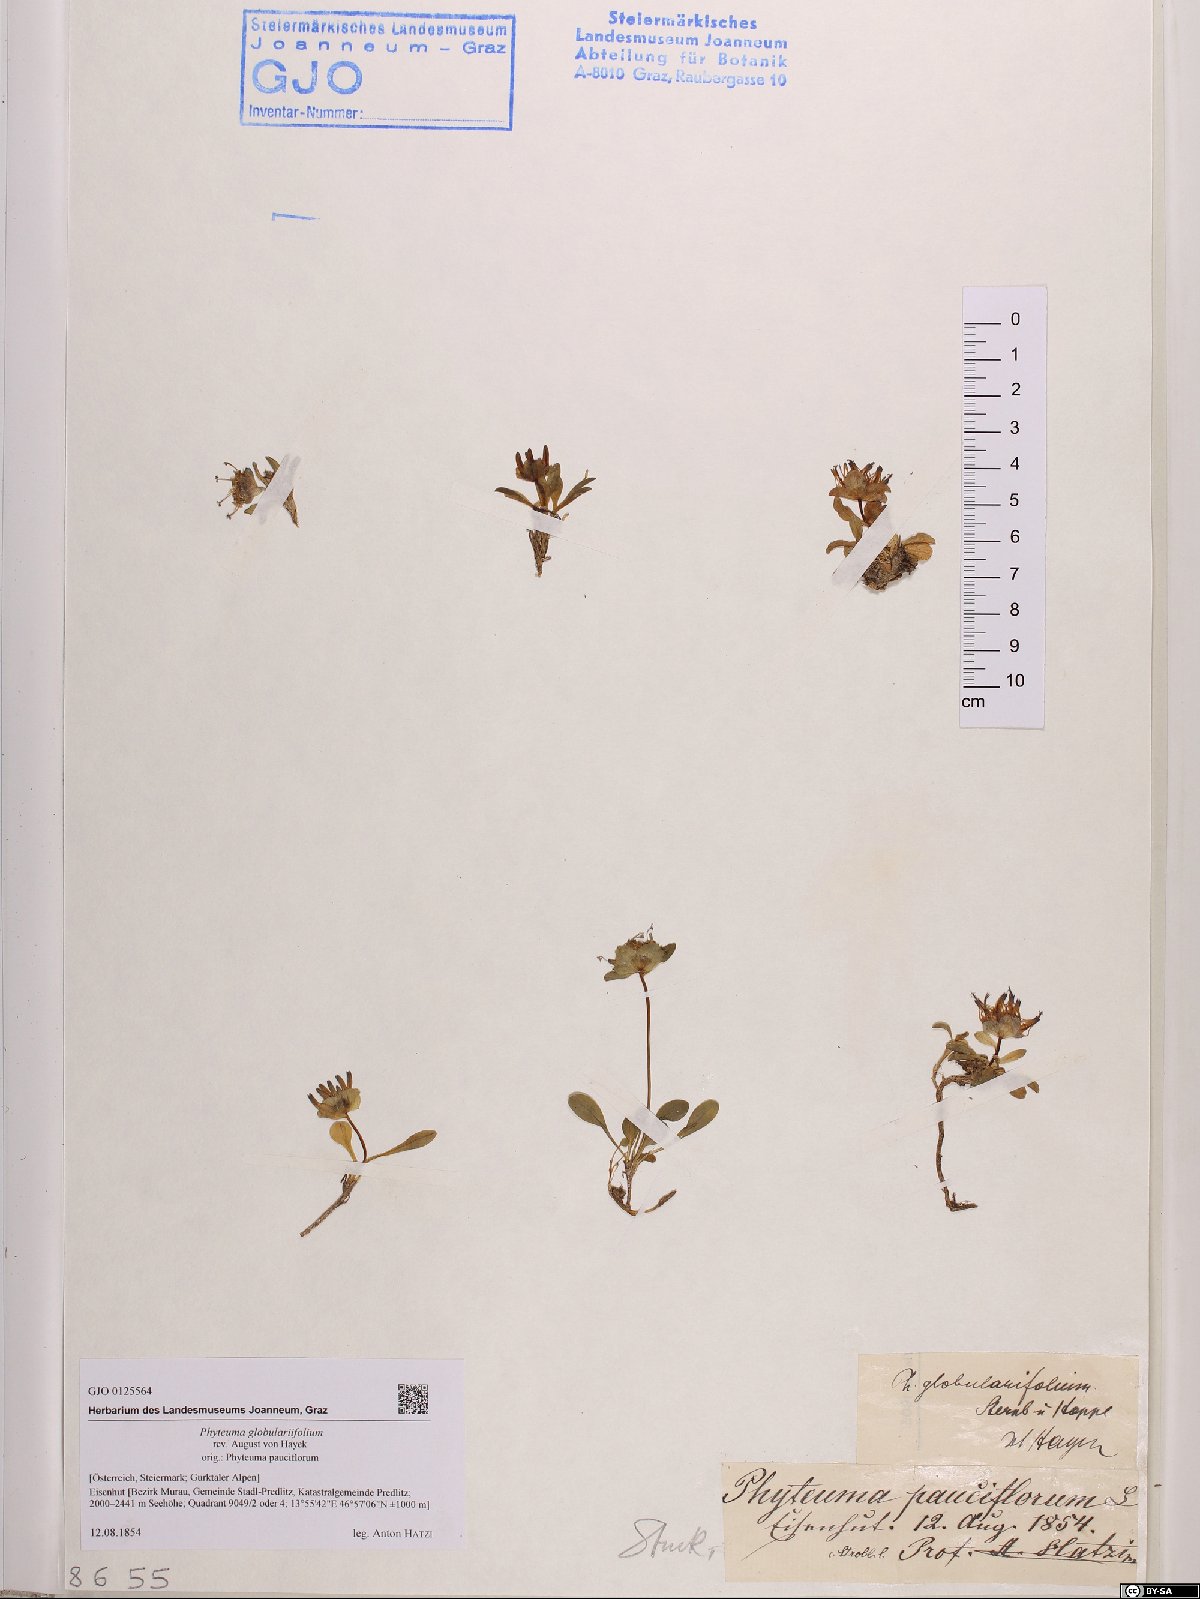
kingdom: Plantae
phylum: Tracheophyta
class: Magnoliopsida
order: Asterales
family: Campanulaceae
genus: Phyteuma
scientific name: Phyteuma globulariifolium
